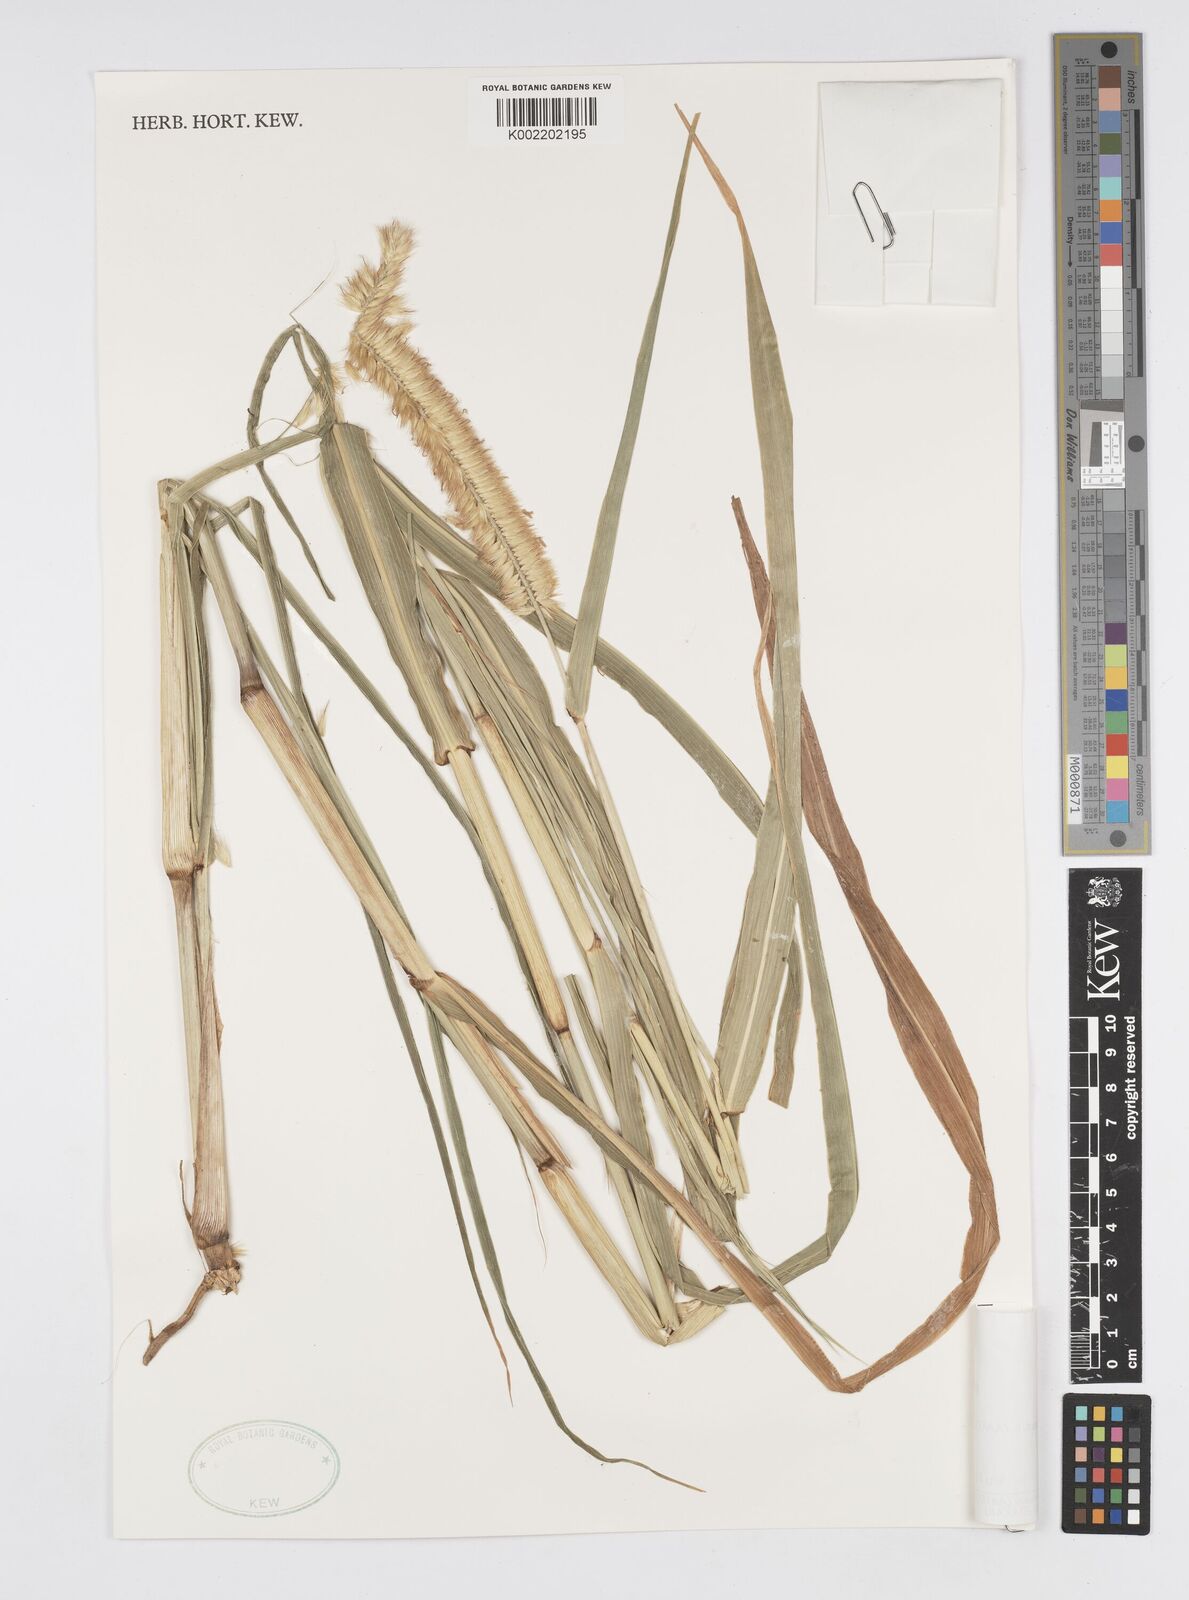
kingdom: Plantae
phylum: Tracheophyta
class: Liliopsida
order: Poales
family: Poaceae
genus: Cenchrus
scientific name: Cenchrus violaceus
